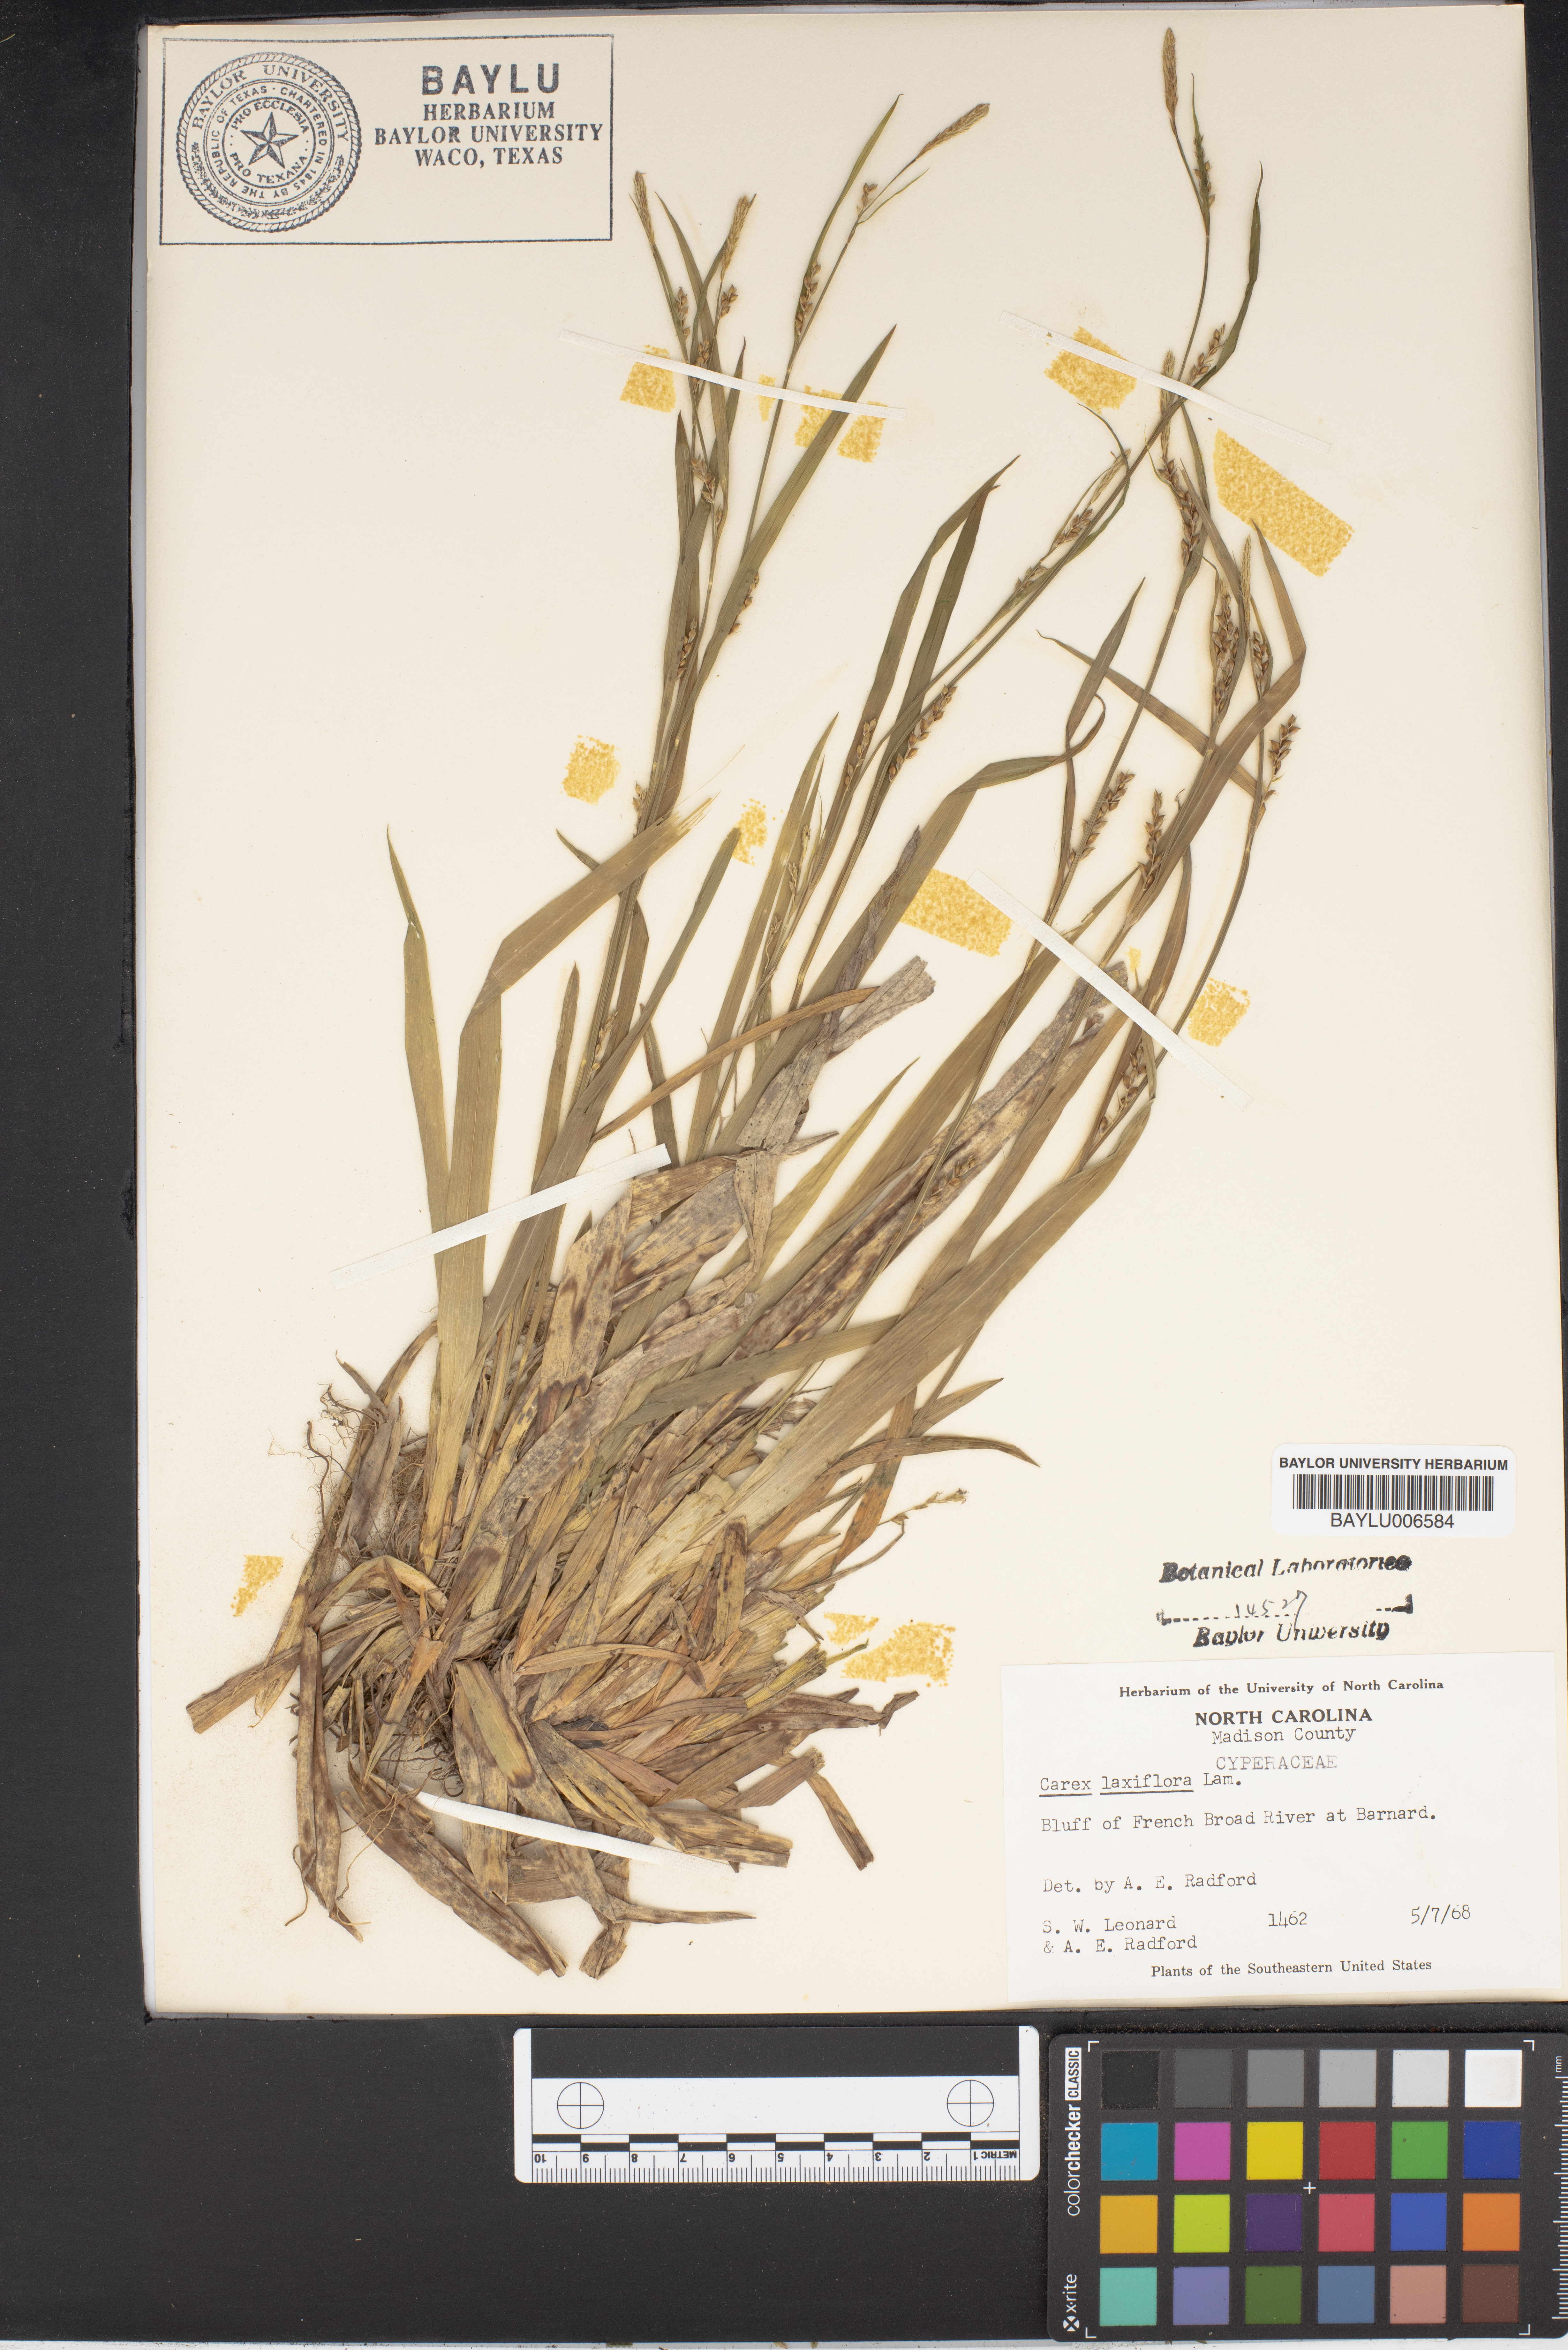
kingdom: Plantae
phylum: Tracheophyta
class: Liliopsida
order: Poales
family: Cyperaceae
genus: Carex
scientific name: Carex laxiflora
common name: Beech wood sedge
